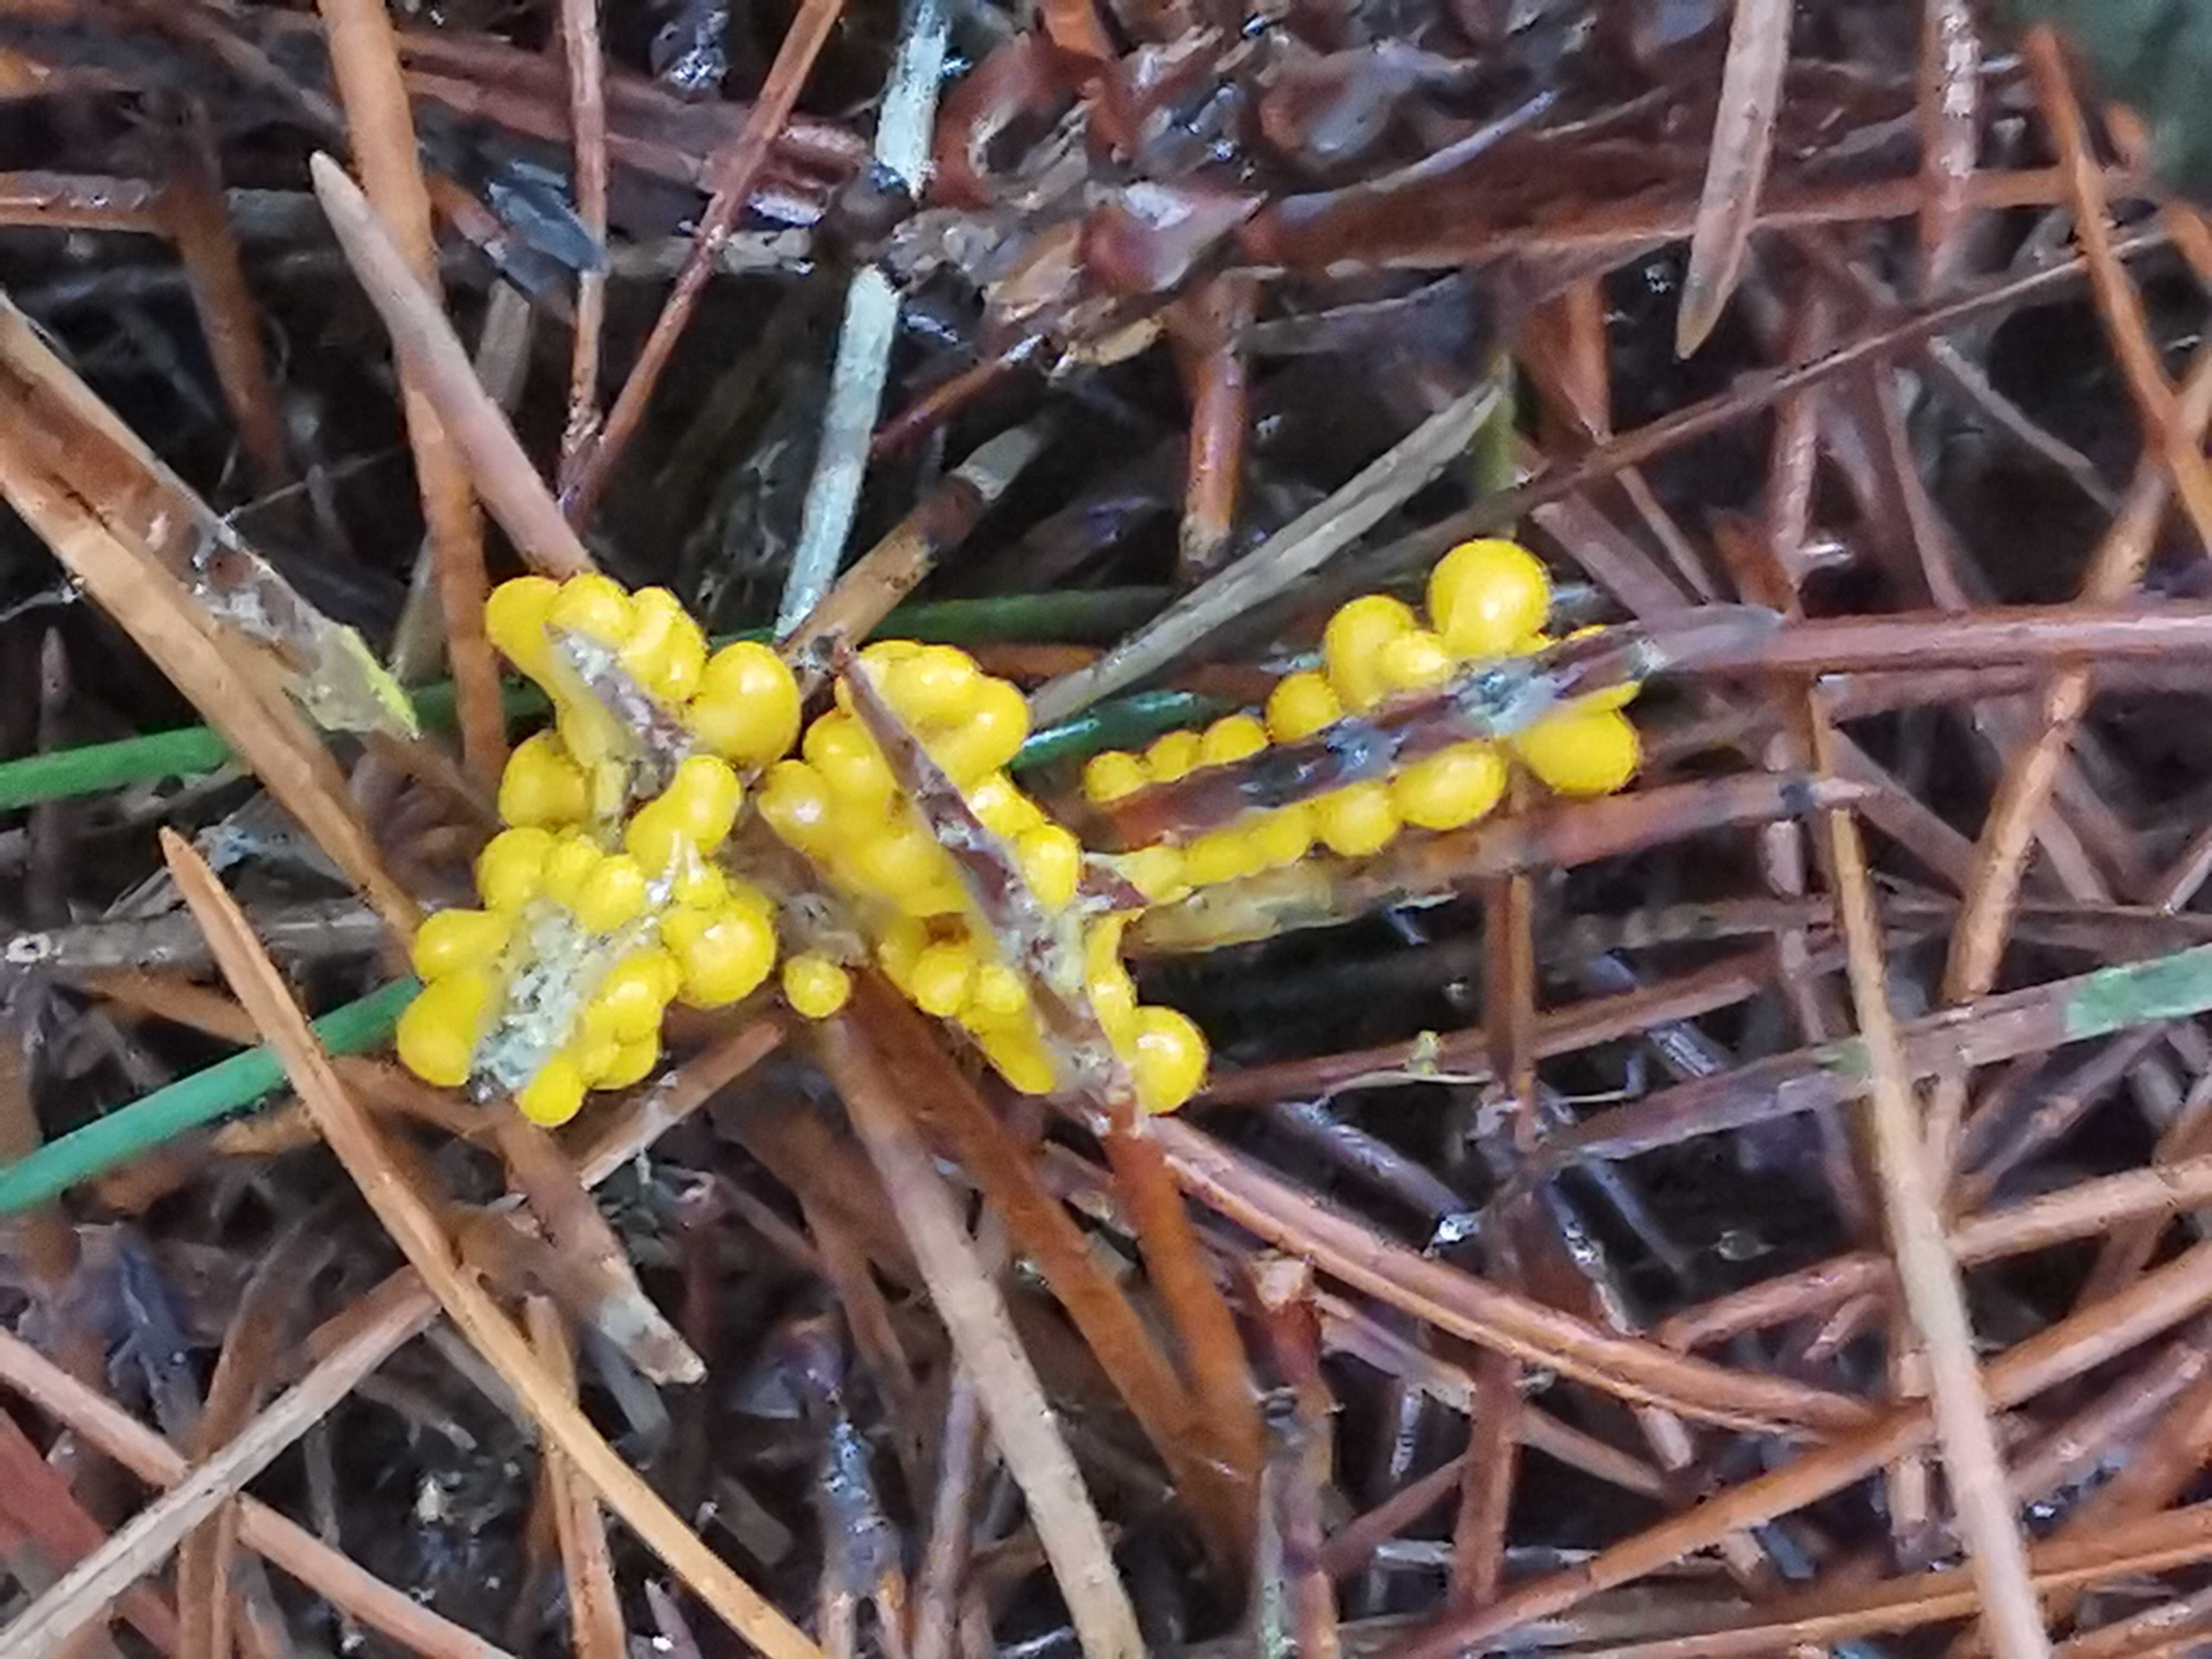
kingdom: Protozoa
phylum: Mycetozoa
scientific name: Mycetozoa
